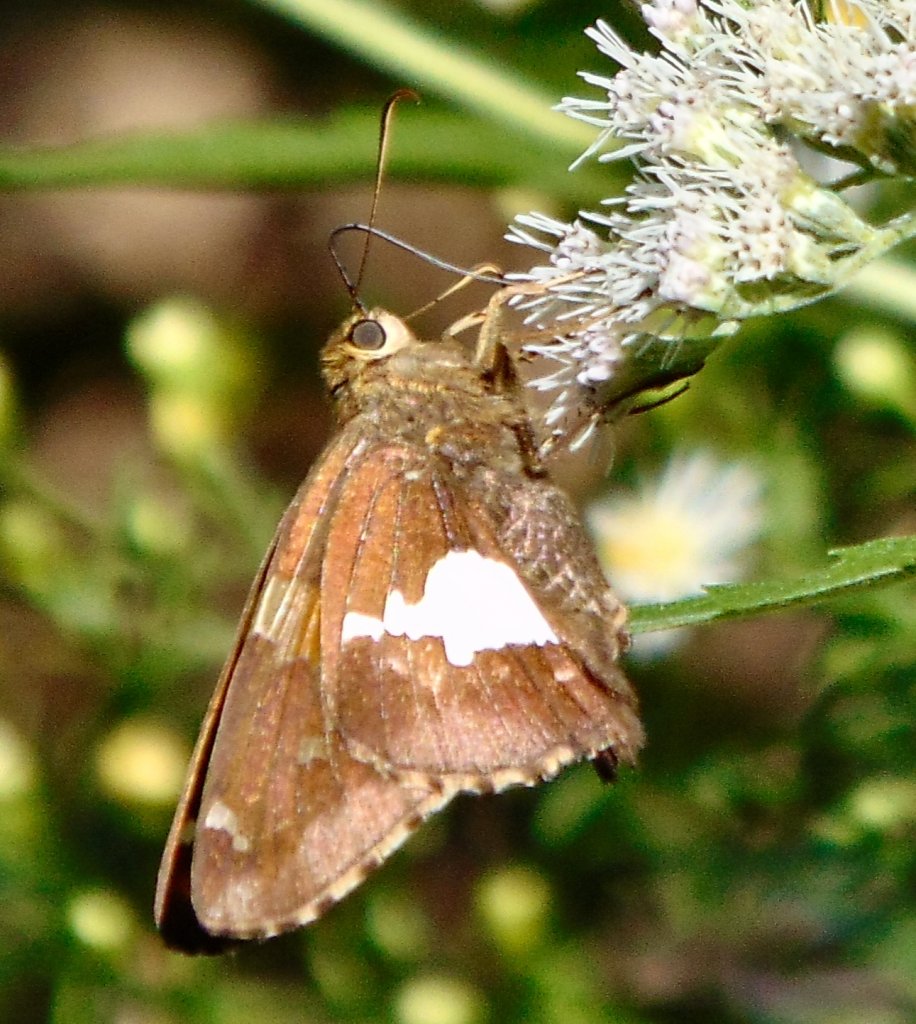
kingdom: Animalia
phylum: Arthropoda
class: Insecta
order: Lepidoptera
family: Hesperiidae
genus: Epargyreus
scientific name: Epargyreus clarus
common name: Silver-spotted Skipper
